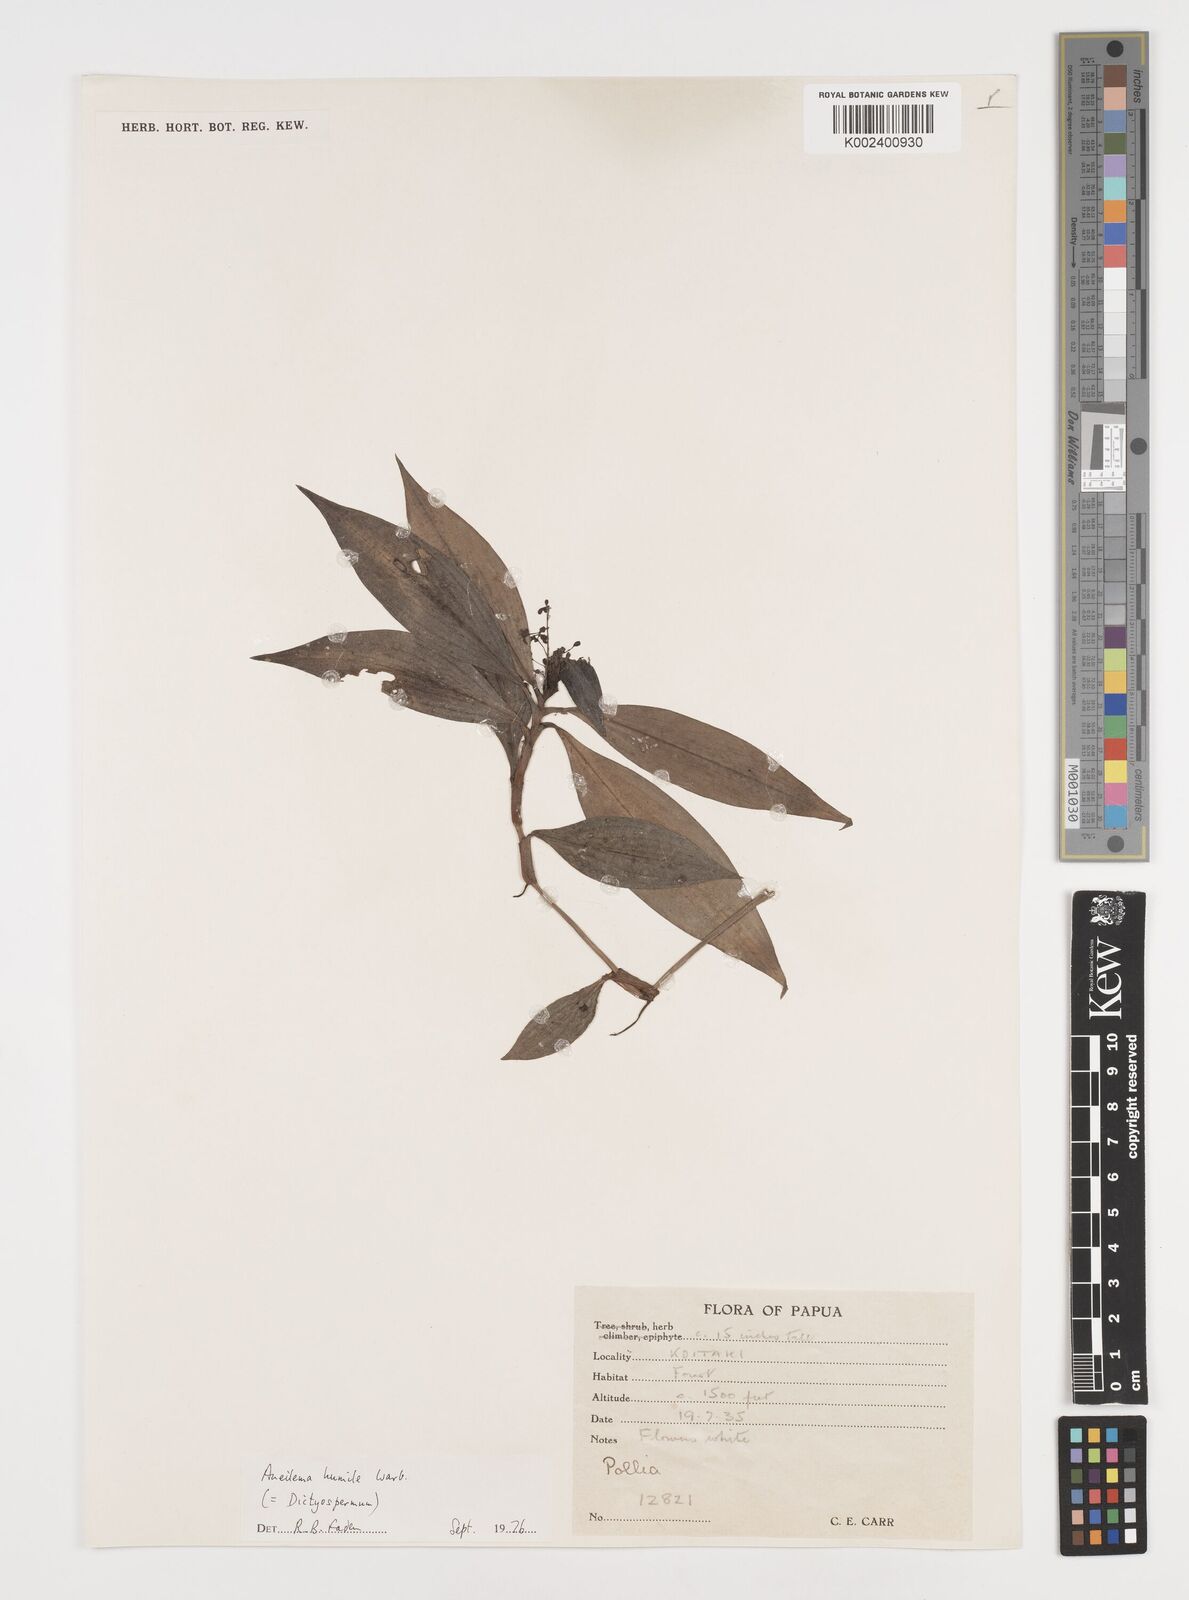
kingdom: Plantae
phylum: Tracheophyta
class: Liliopsida
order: Commelinales
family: Commelinaceae
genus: Dictyospermum
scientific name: Dictyospermum humile
